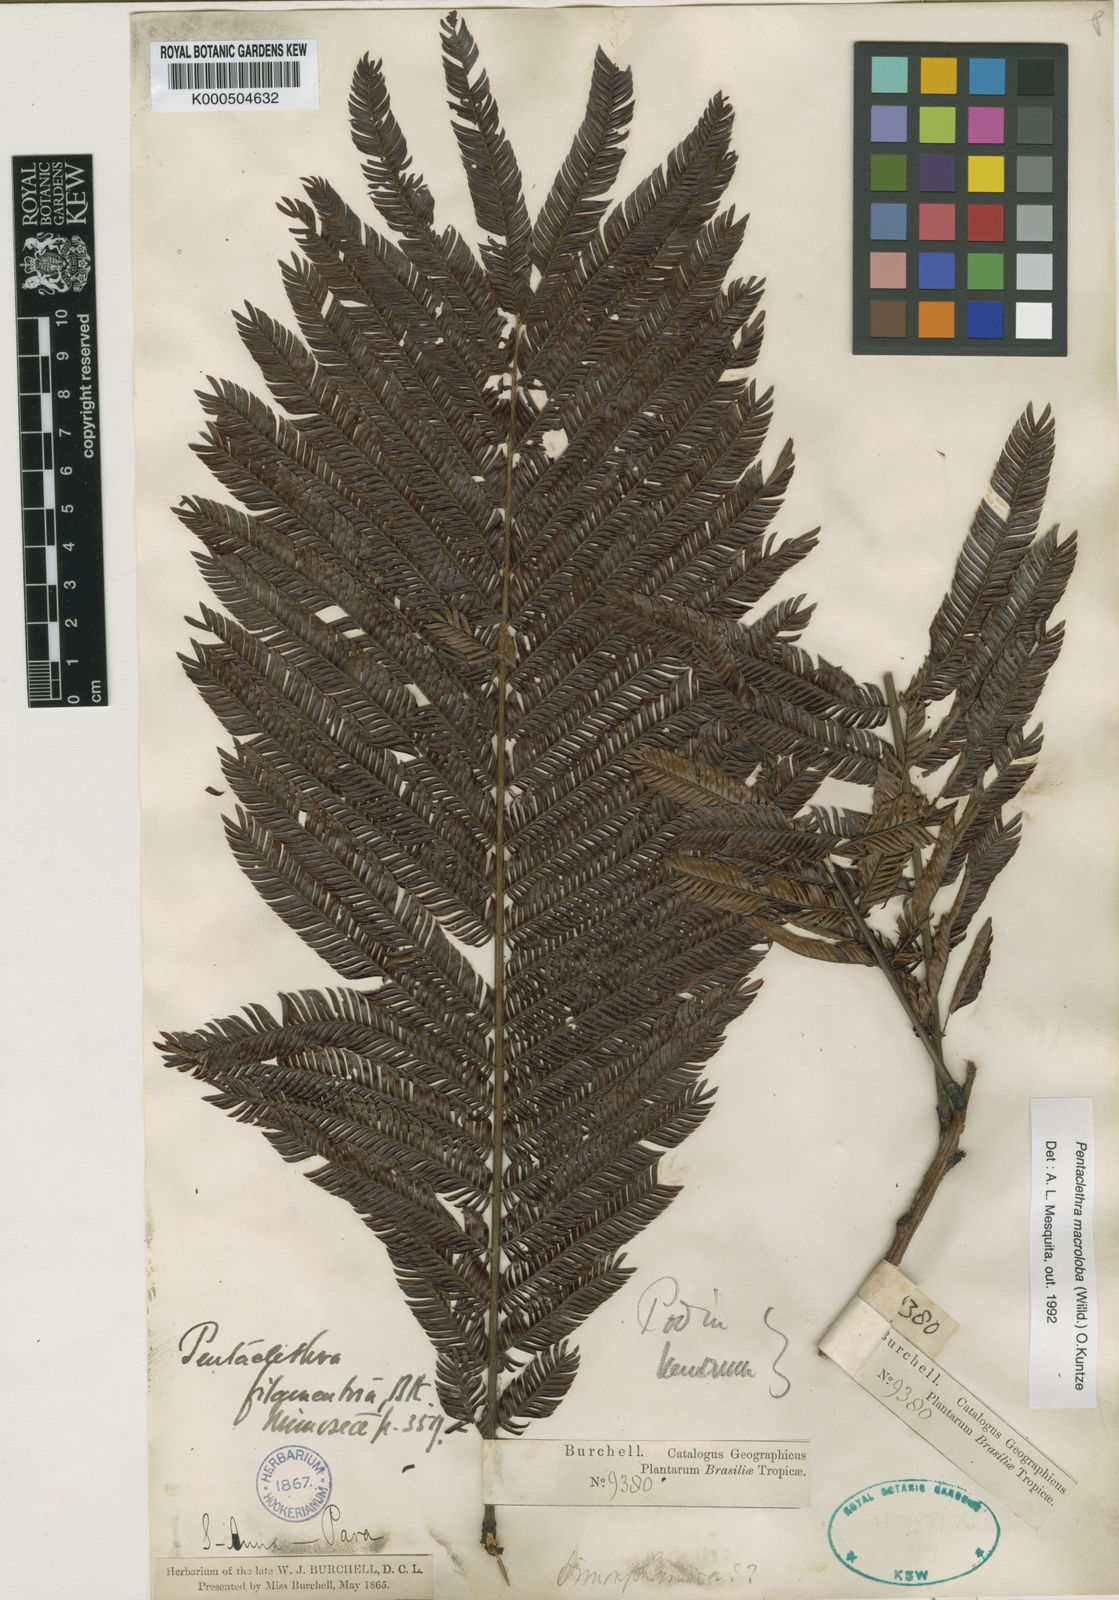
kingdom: Plantae
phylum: Tracheophyta
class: Magnoliopsida
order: Fabales
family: Fabaceae
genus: Pentaclethra
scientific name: Pentaclethra macroloba
